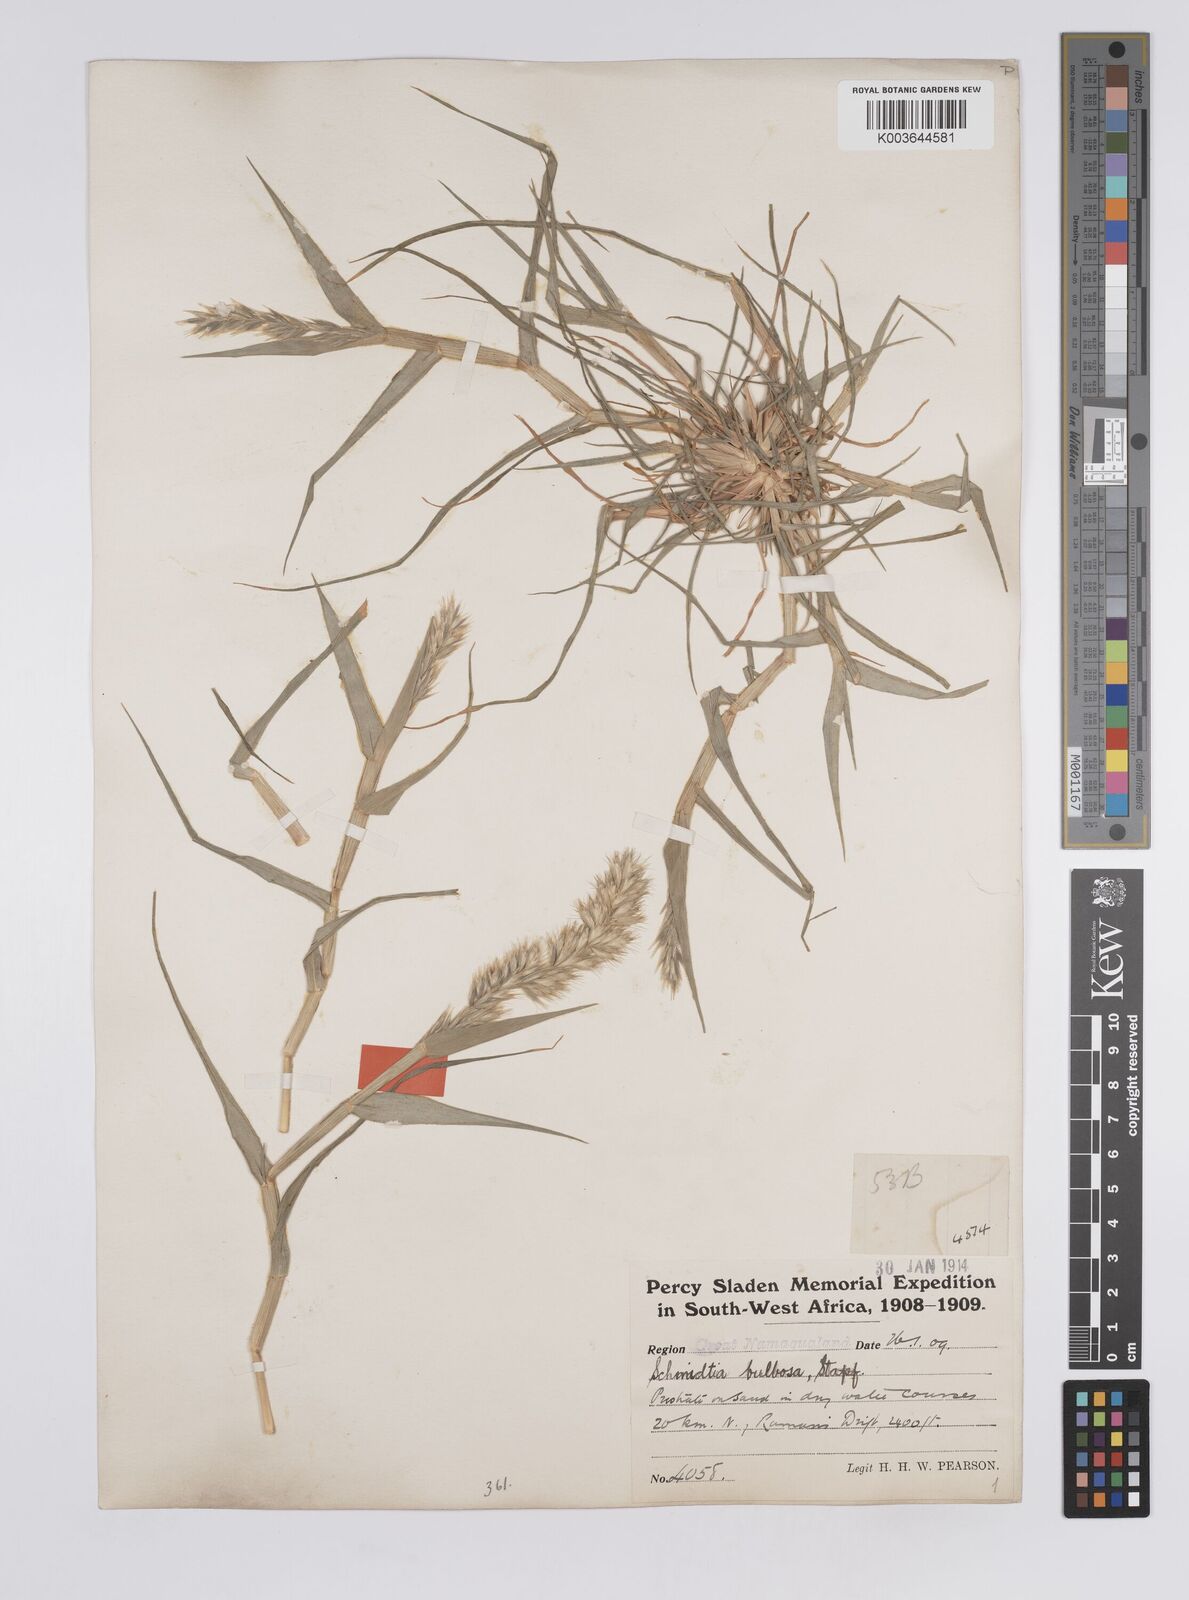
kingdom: Plantae
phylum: Tracheophyta
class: Liliopsida
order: Poales
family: Poaceae
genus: Schmidtia
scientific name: Schmidtia kalahariensis
